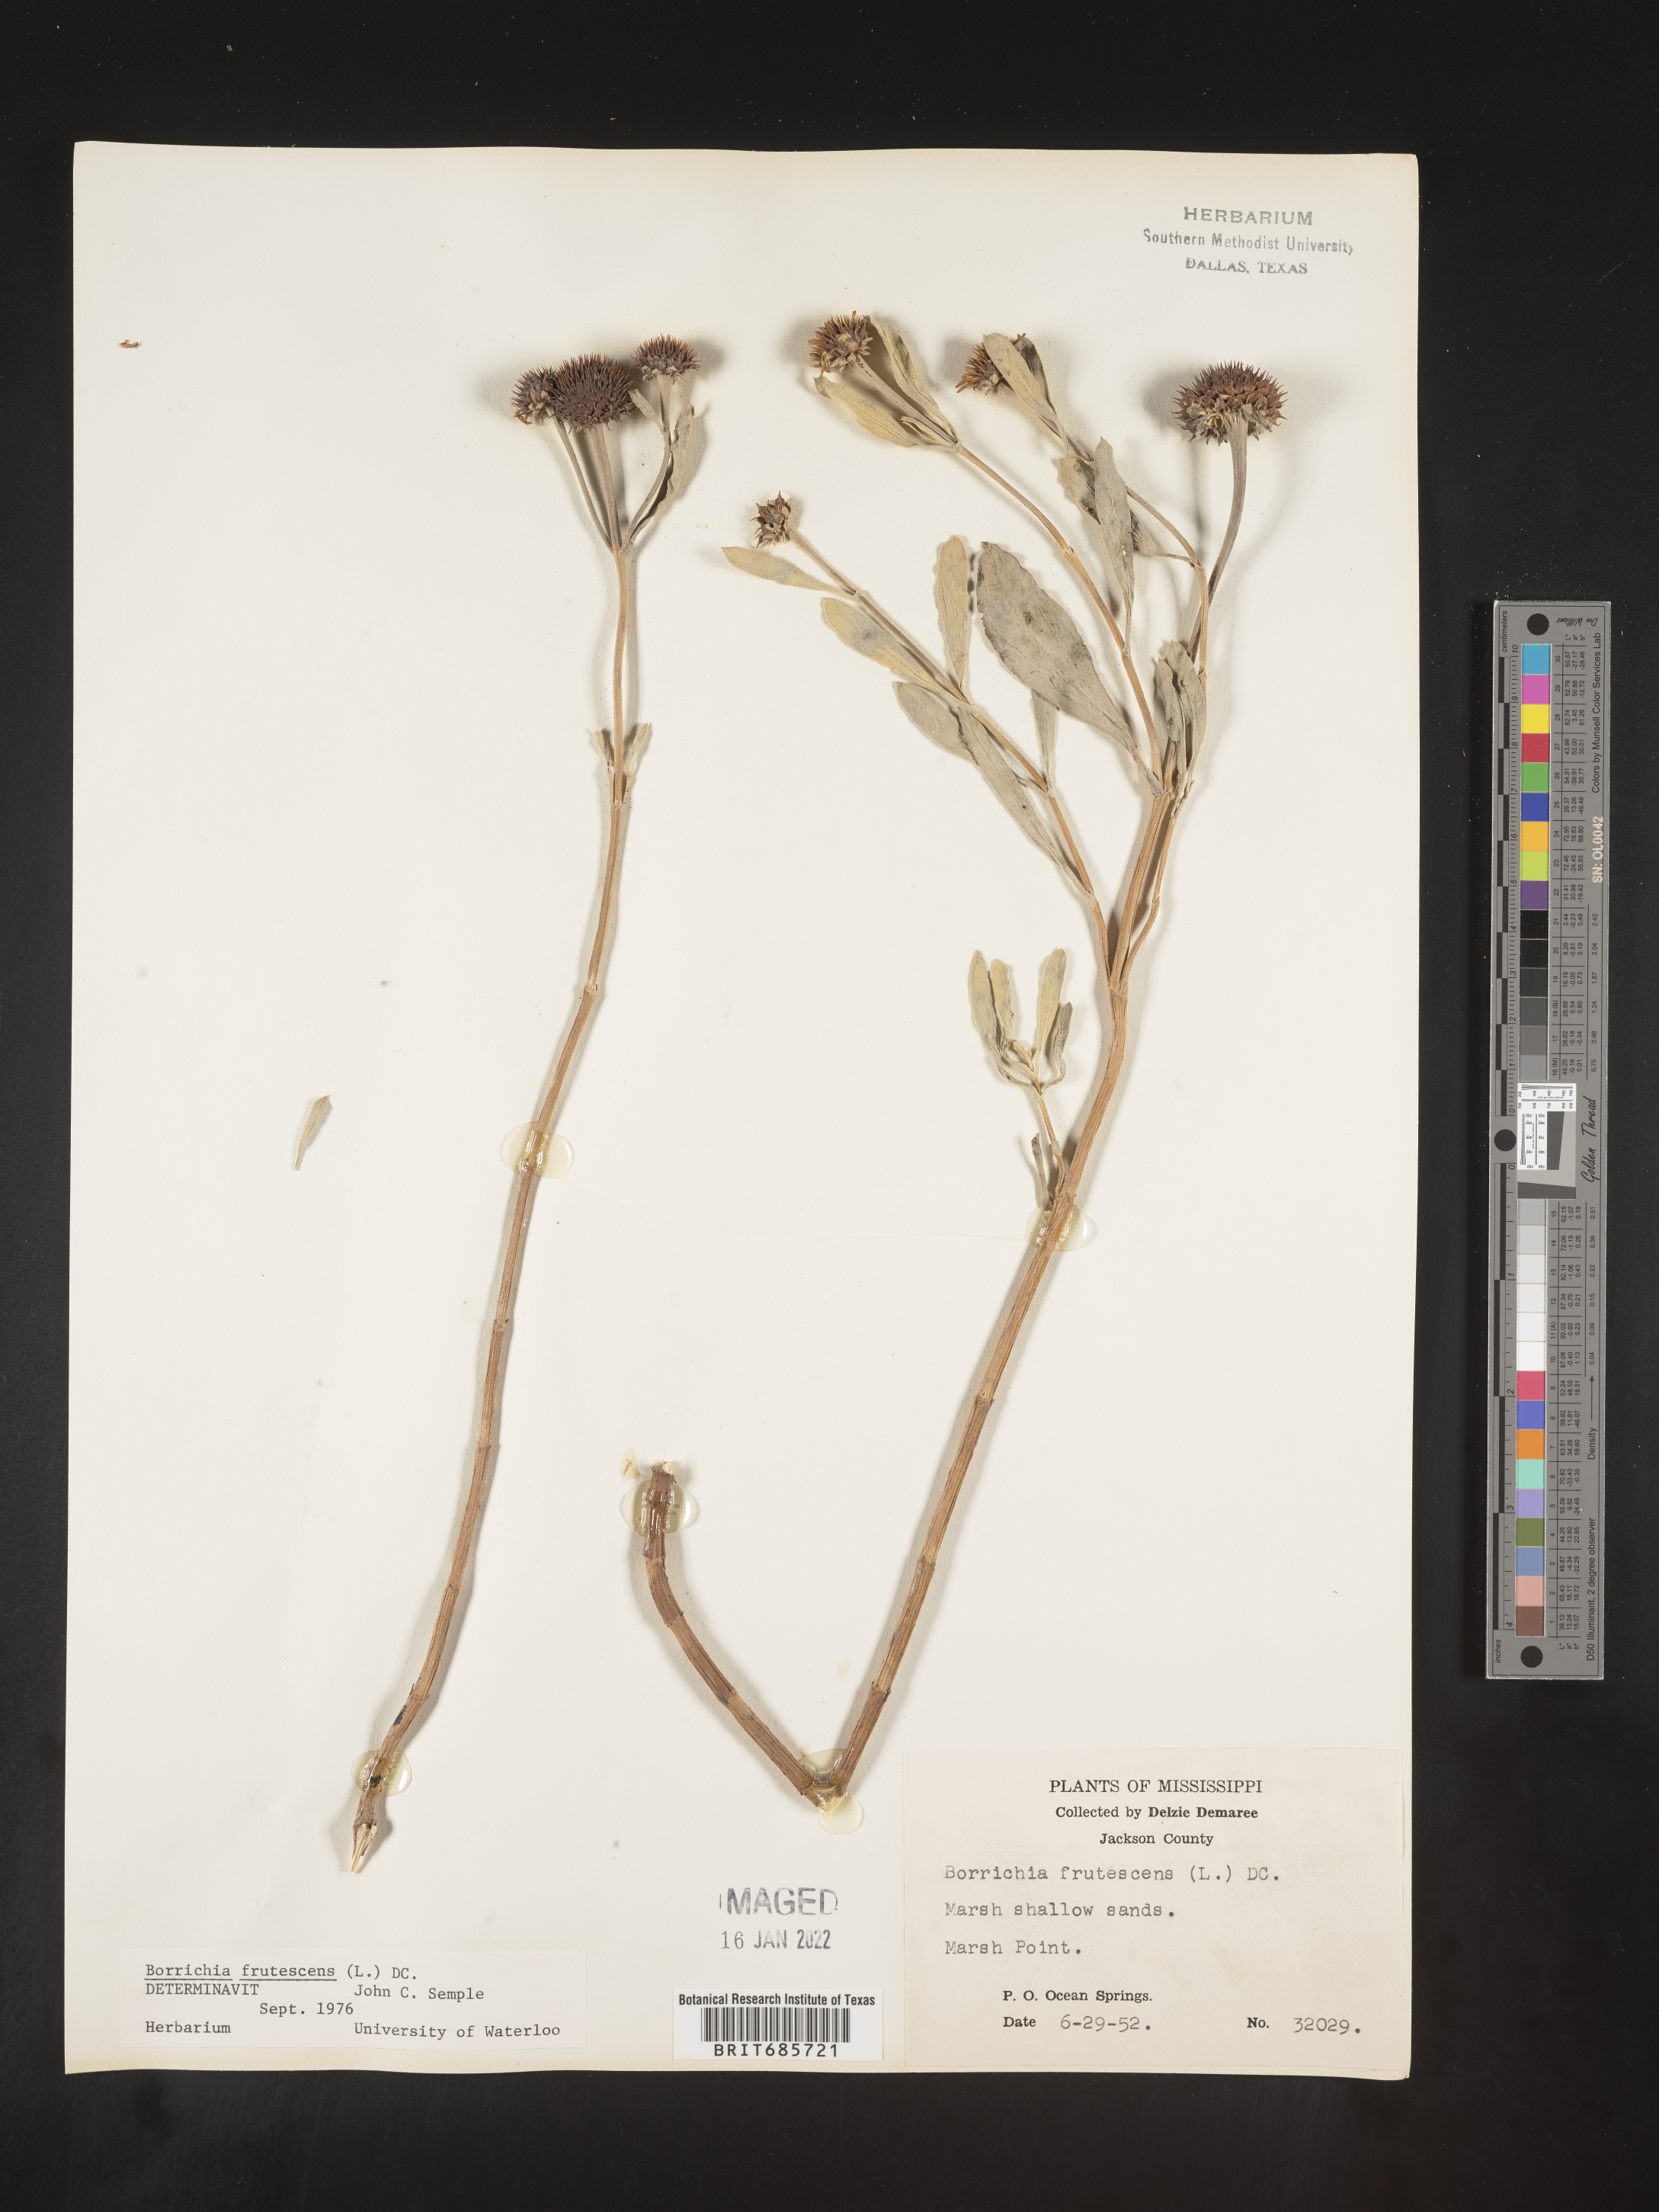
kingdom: Plantae
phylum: Tracheophyta
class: Magnoliopsida
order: Asterales
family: Asteraceae
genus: Borrichia
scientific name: Borrichia frutescens
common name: Sea oxeye
